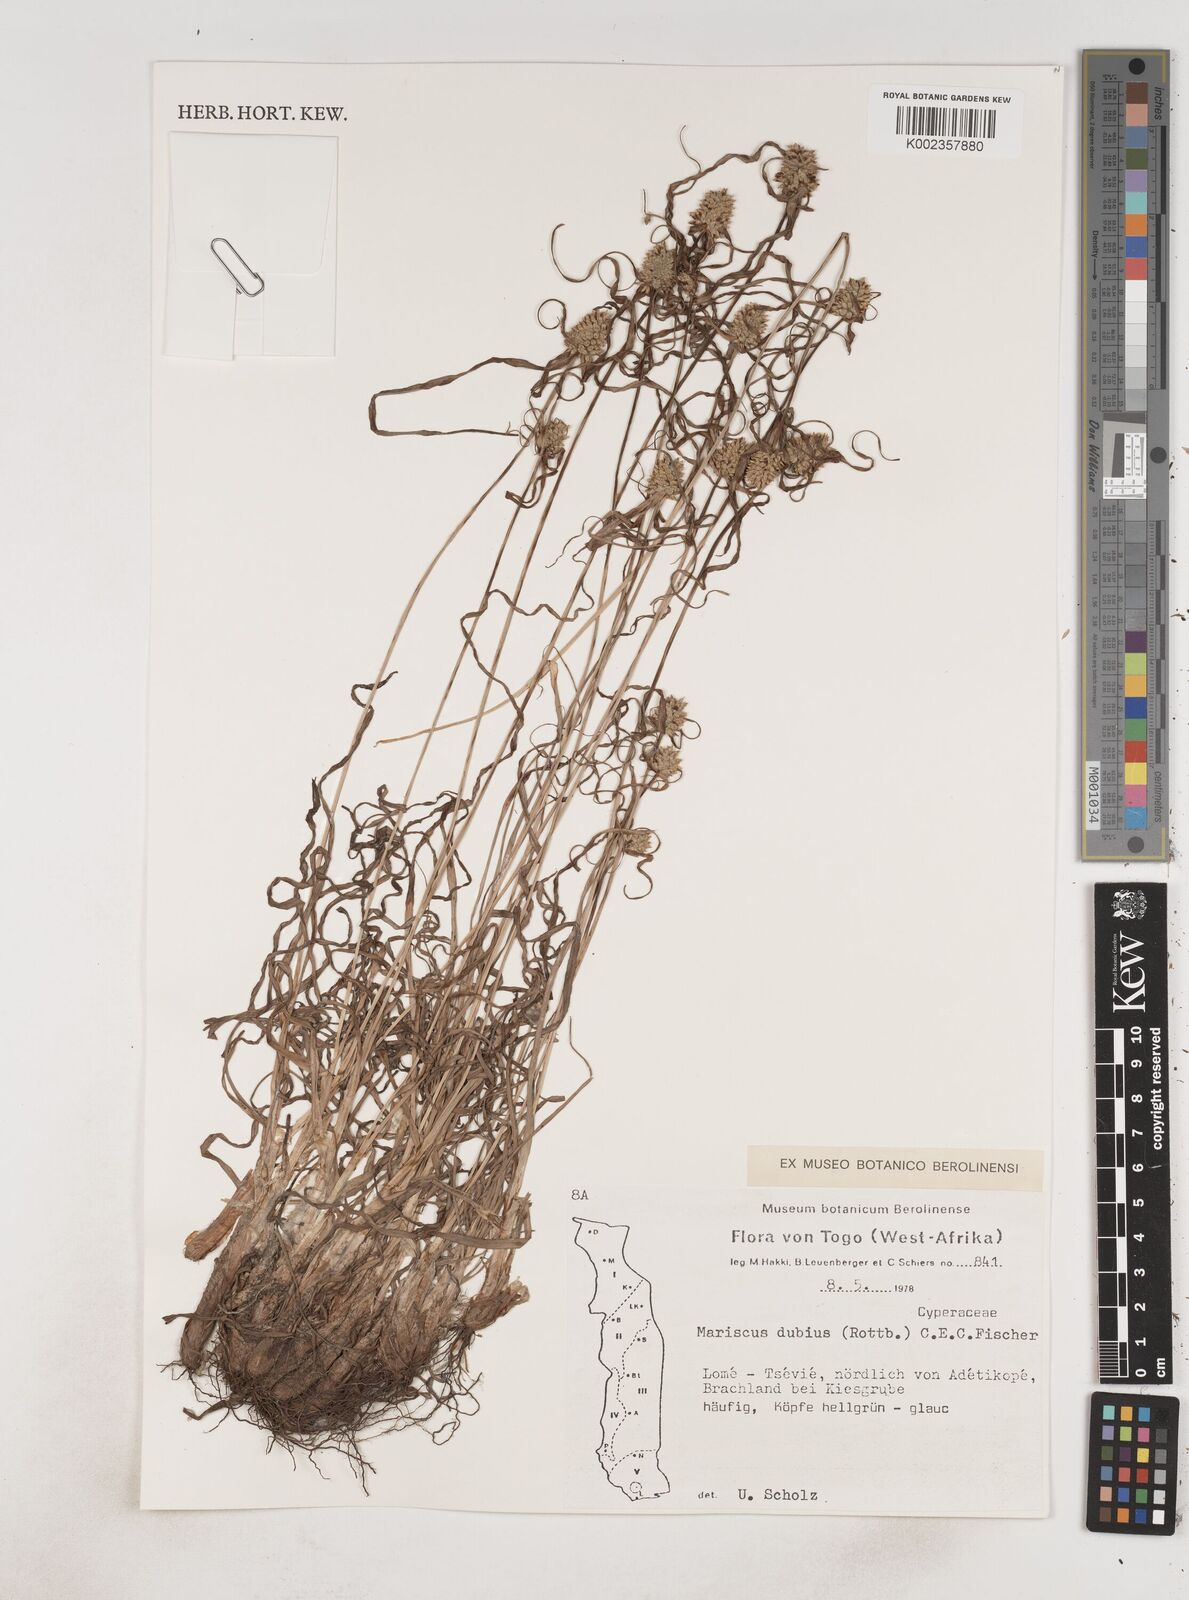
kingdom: Plantae
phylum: Tracheophyta
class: Liliopsida
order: Poales
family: Cyperaceae
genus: Cyperus
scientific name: Cyperus dubius
